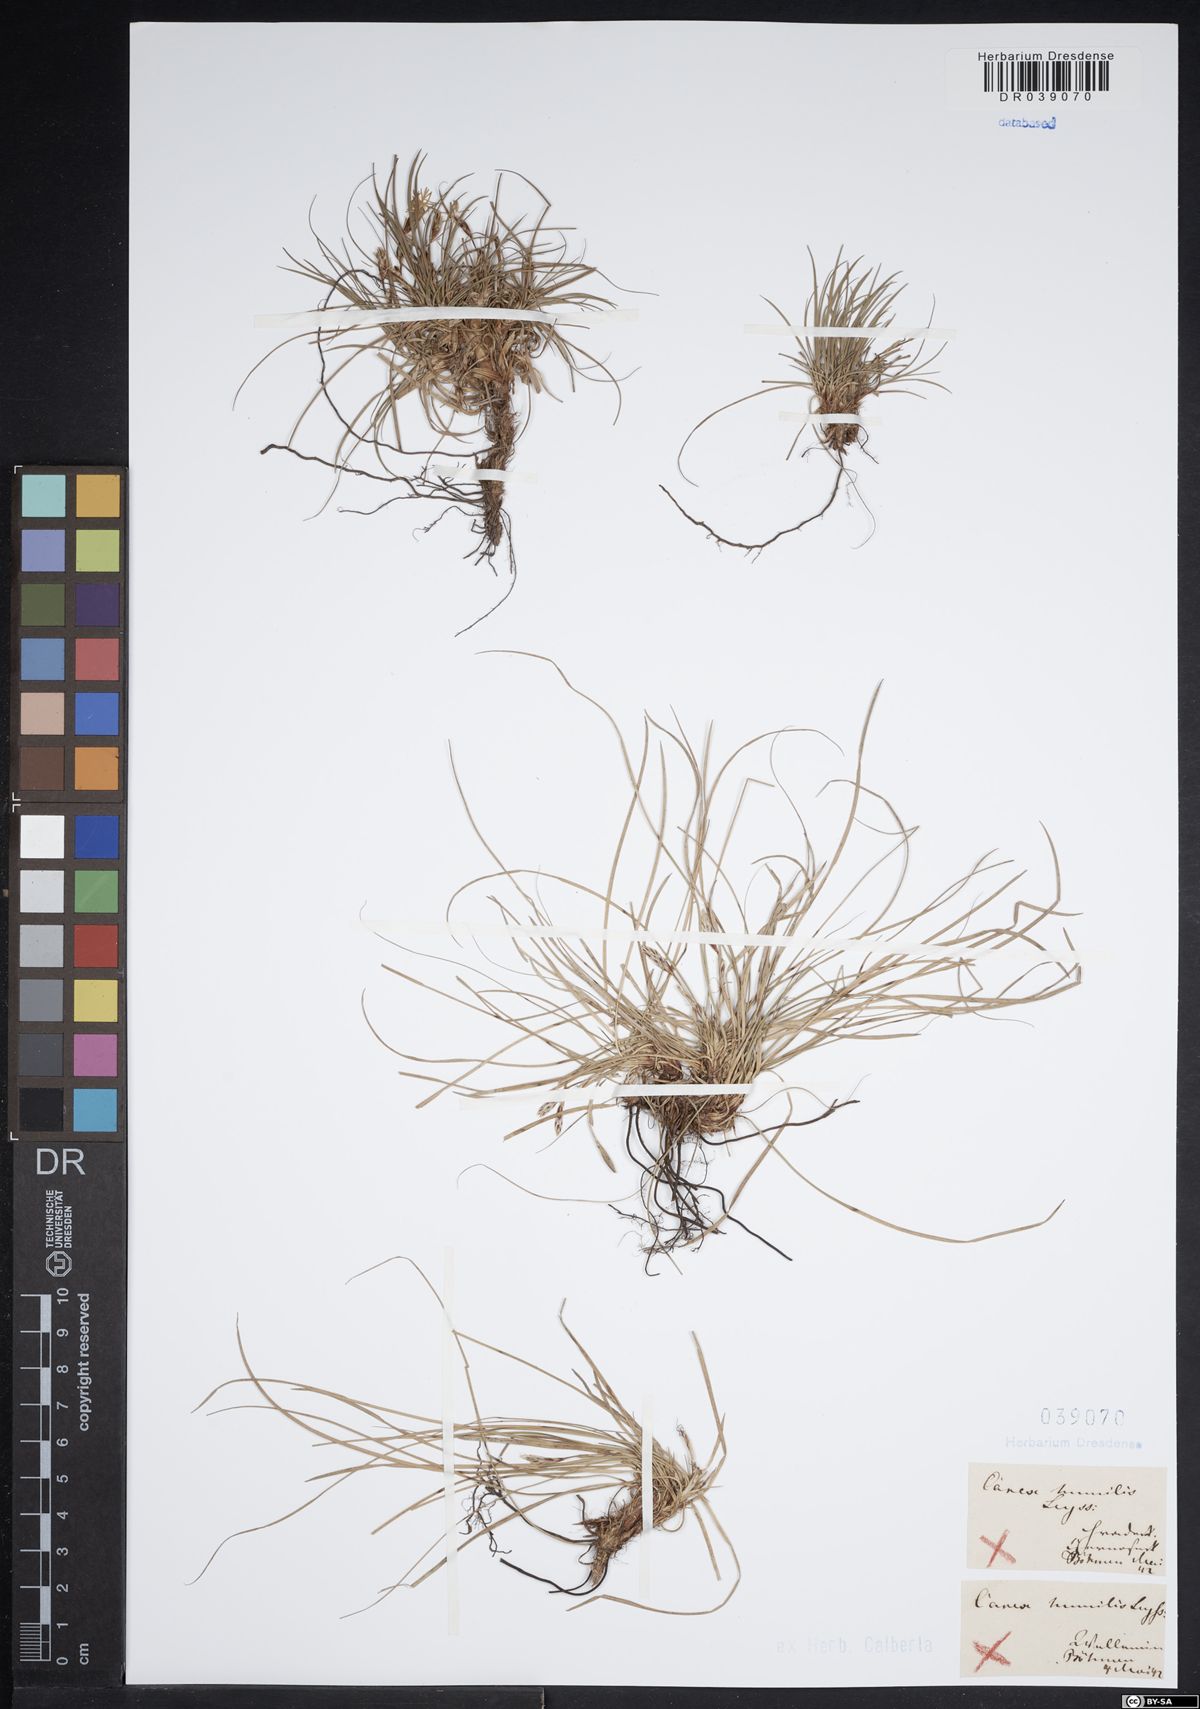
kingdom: Plantae
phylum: Tracheophyta
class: Liliopsida
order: Poales
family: Cyperaceae
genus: Carex
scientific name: Carex humilis
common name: Dwarf sedge
